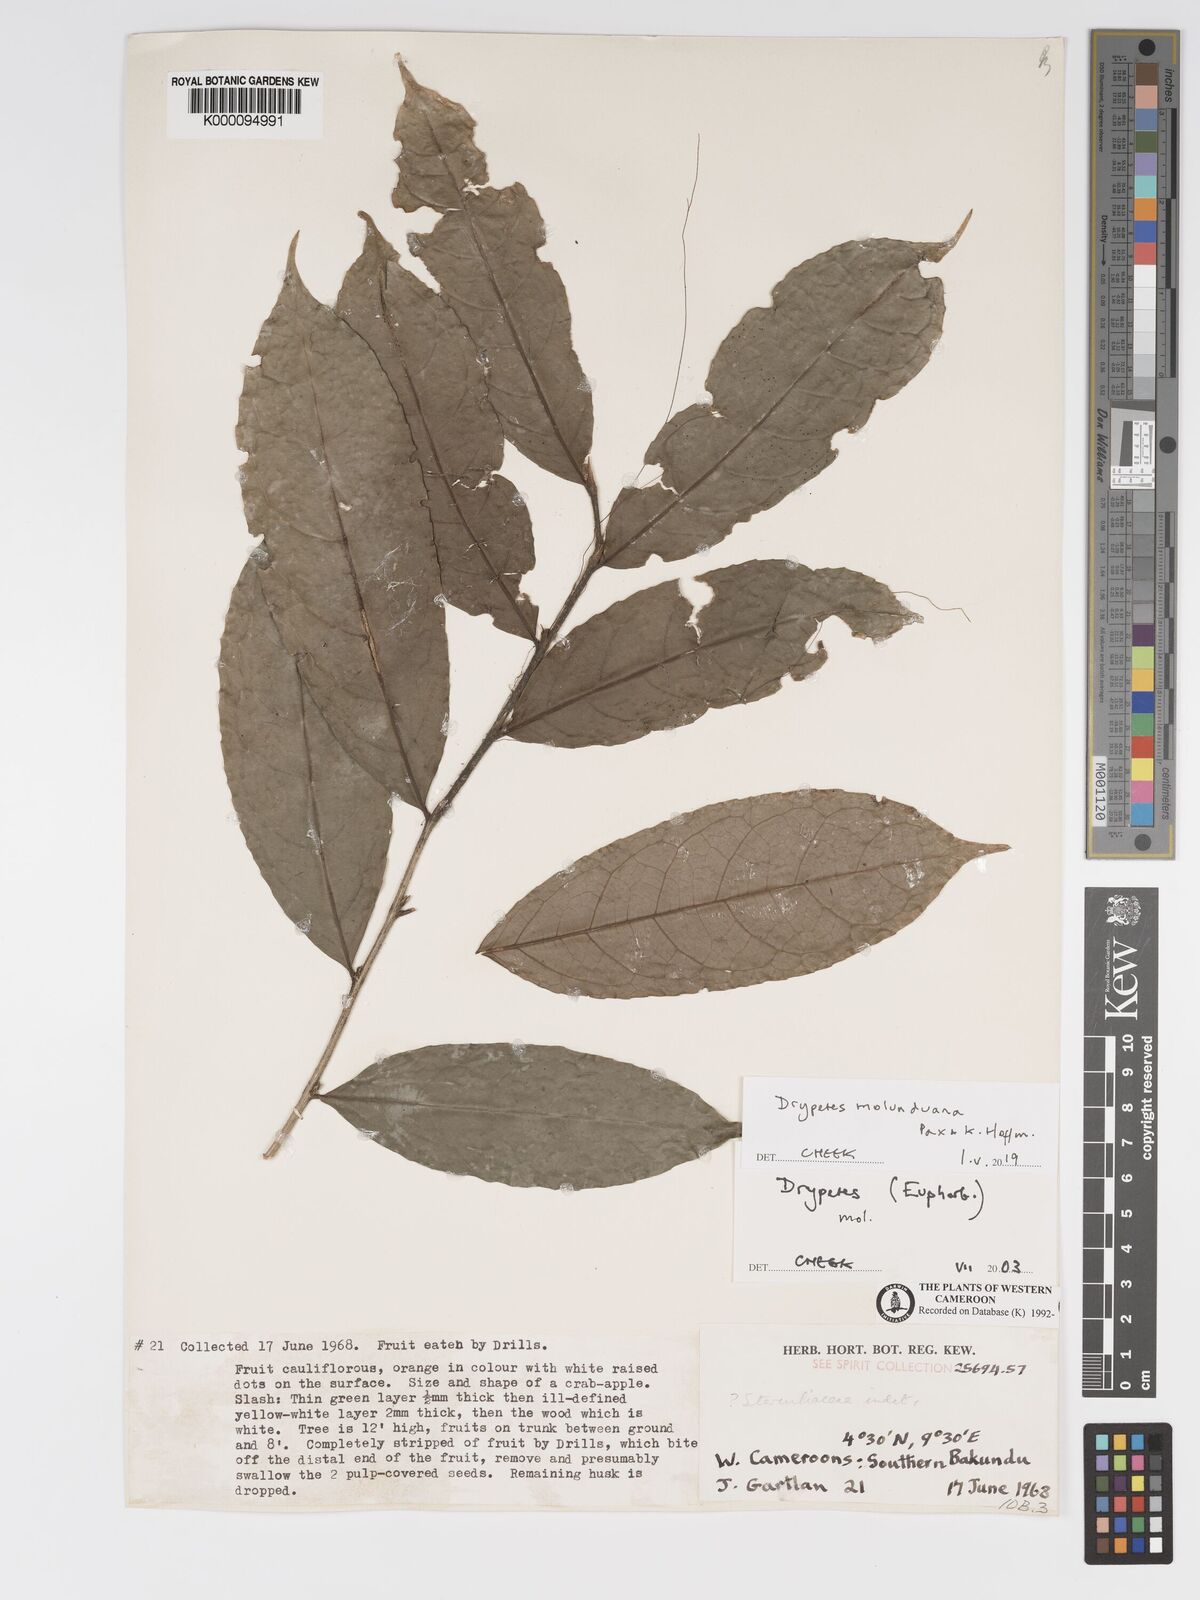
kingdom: Plantae
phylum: Tracheophyta
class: Magnoliopsida
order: Malvales
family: Sterculiaceae
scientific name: Sterculiaceae
